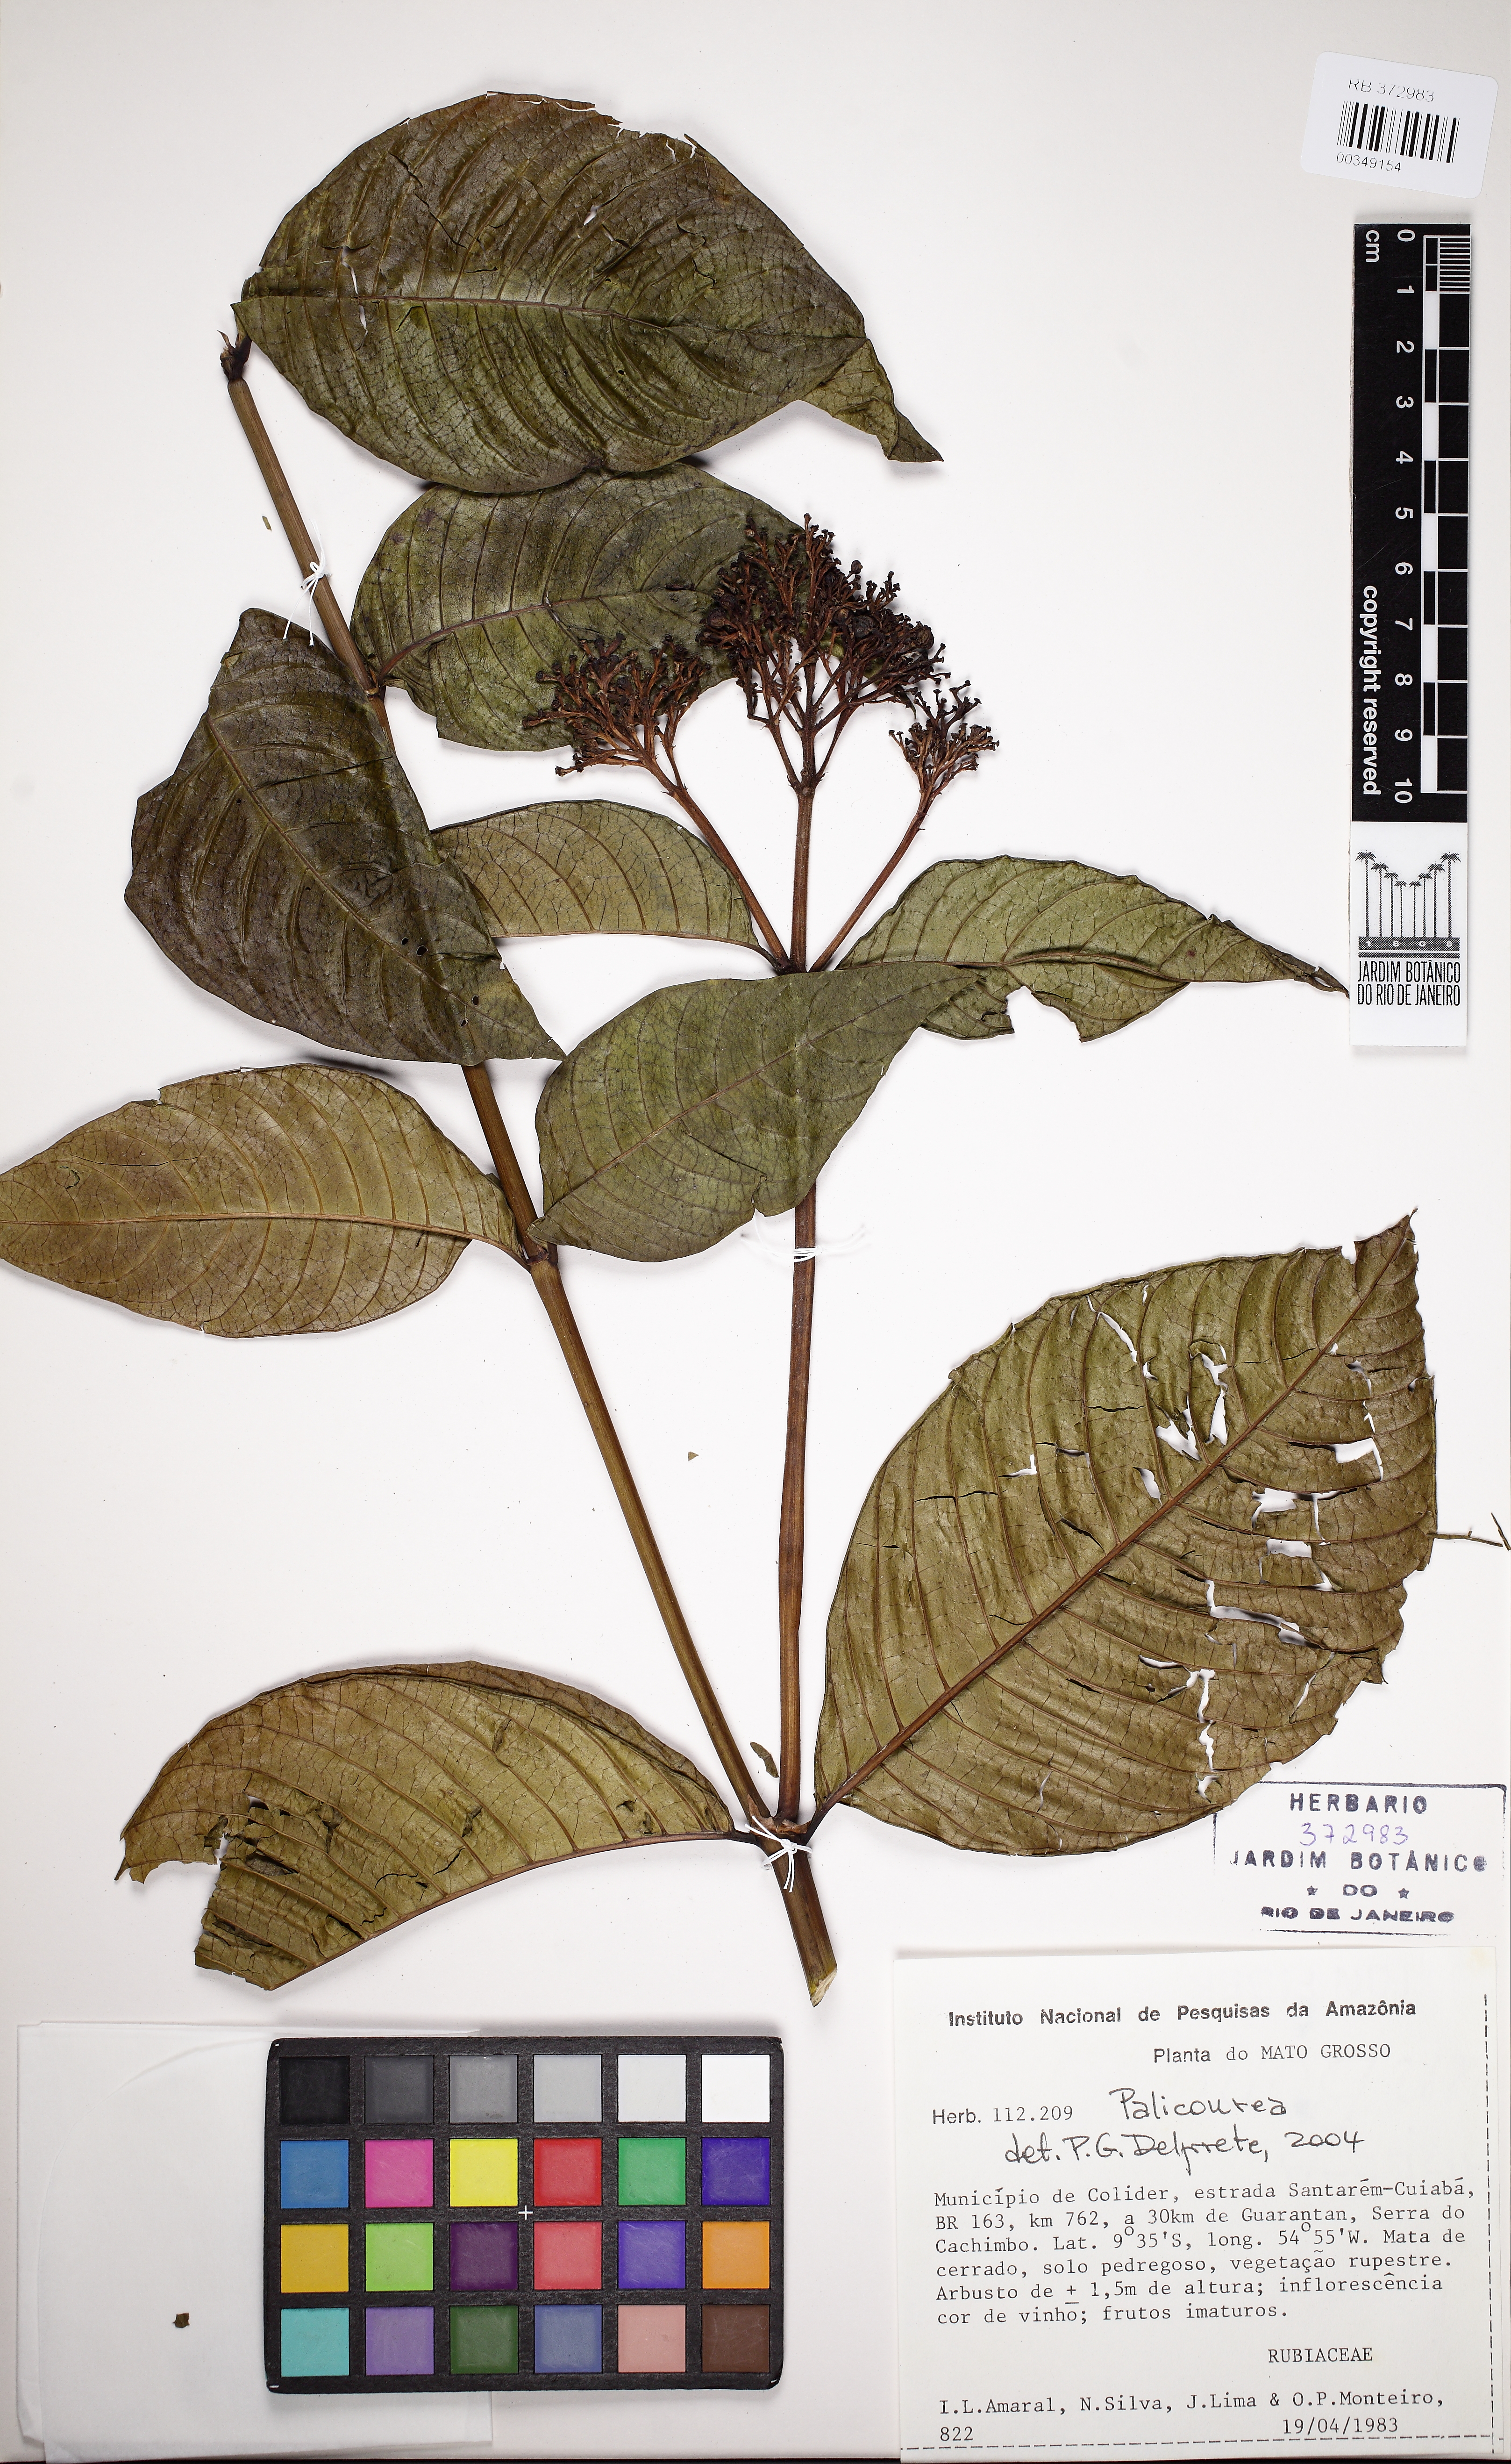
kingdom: Plantae
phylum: Tracheophyta
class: Magnoliopsida
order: Gentianales
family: Rubiaceae
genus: Palicourea
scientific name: Palicourea rigida
